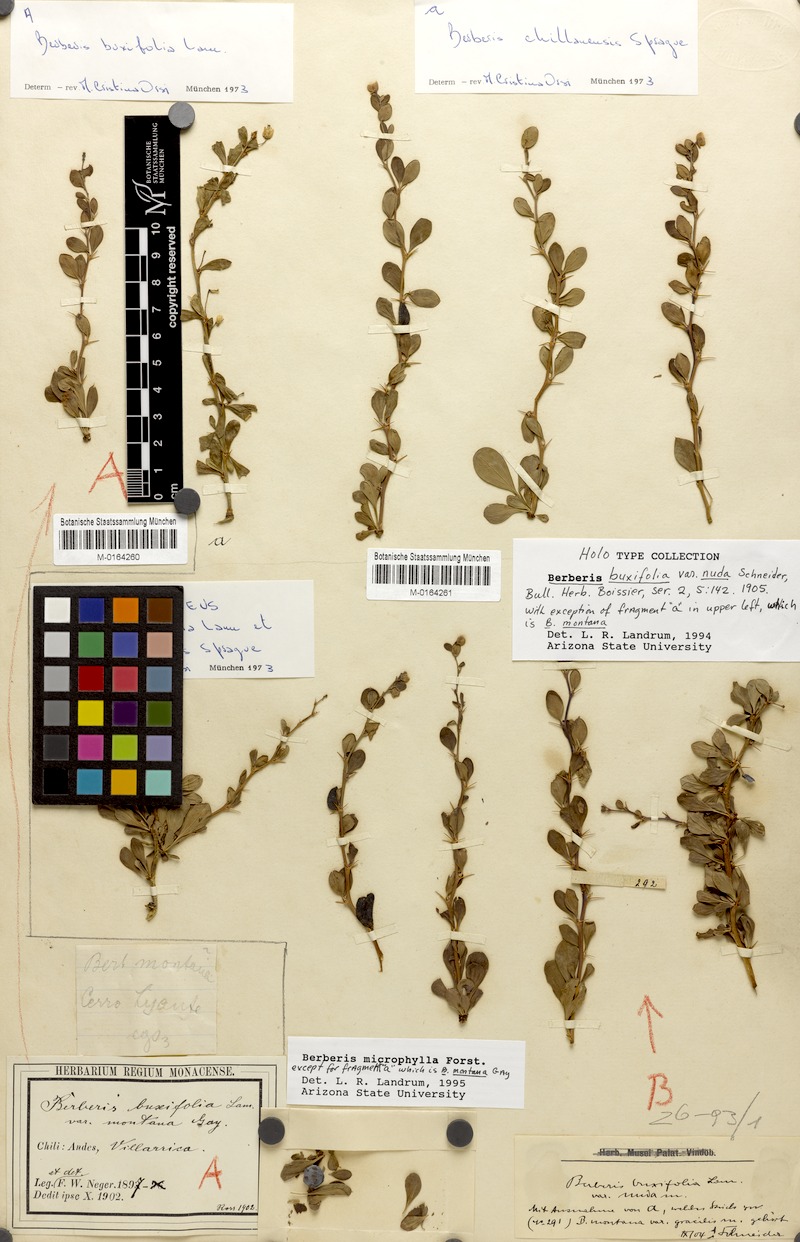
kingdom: Plantae
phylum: Tracheophyta
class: Magnoliopsida
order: Ranunculales
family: Berberidaceae
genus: Berberis
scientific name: Berberis montana
